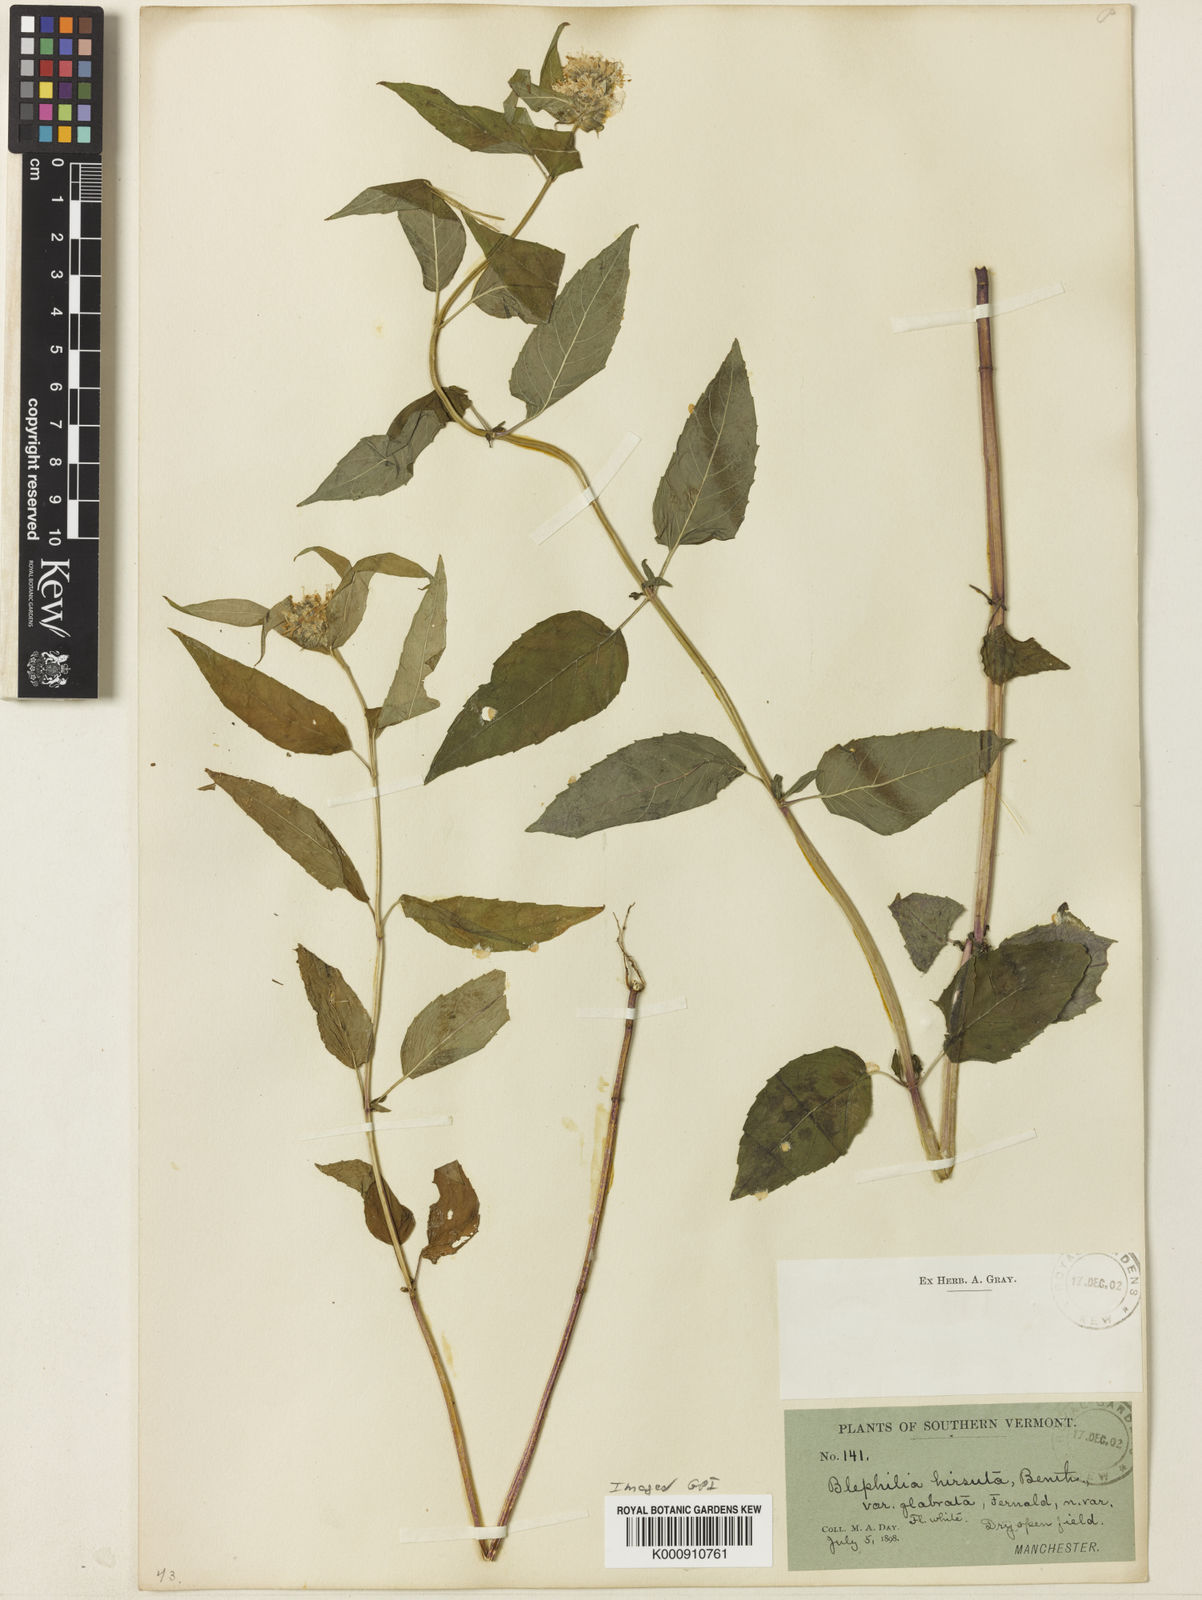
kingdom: Plantae
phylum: Tracheophyta
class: Magnoliopsida
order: Lamiales
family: Lamiaceae
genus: Blephilia
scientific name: Blephilia hirsuta
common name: Hairy blephilia
